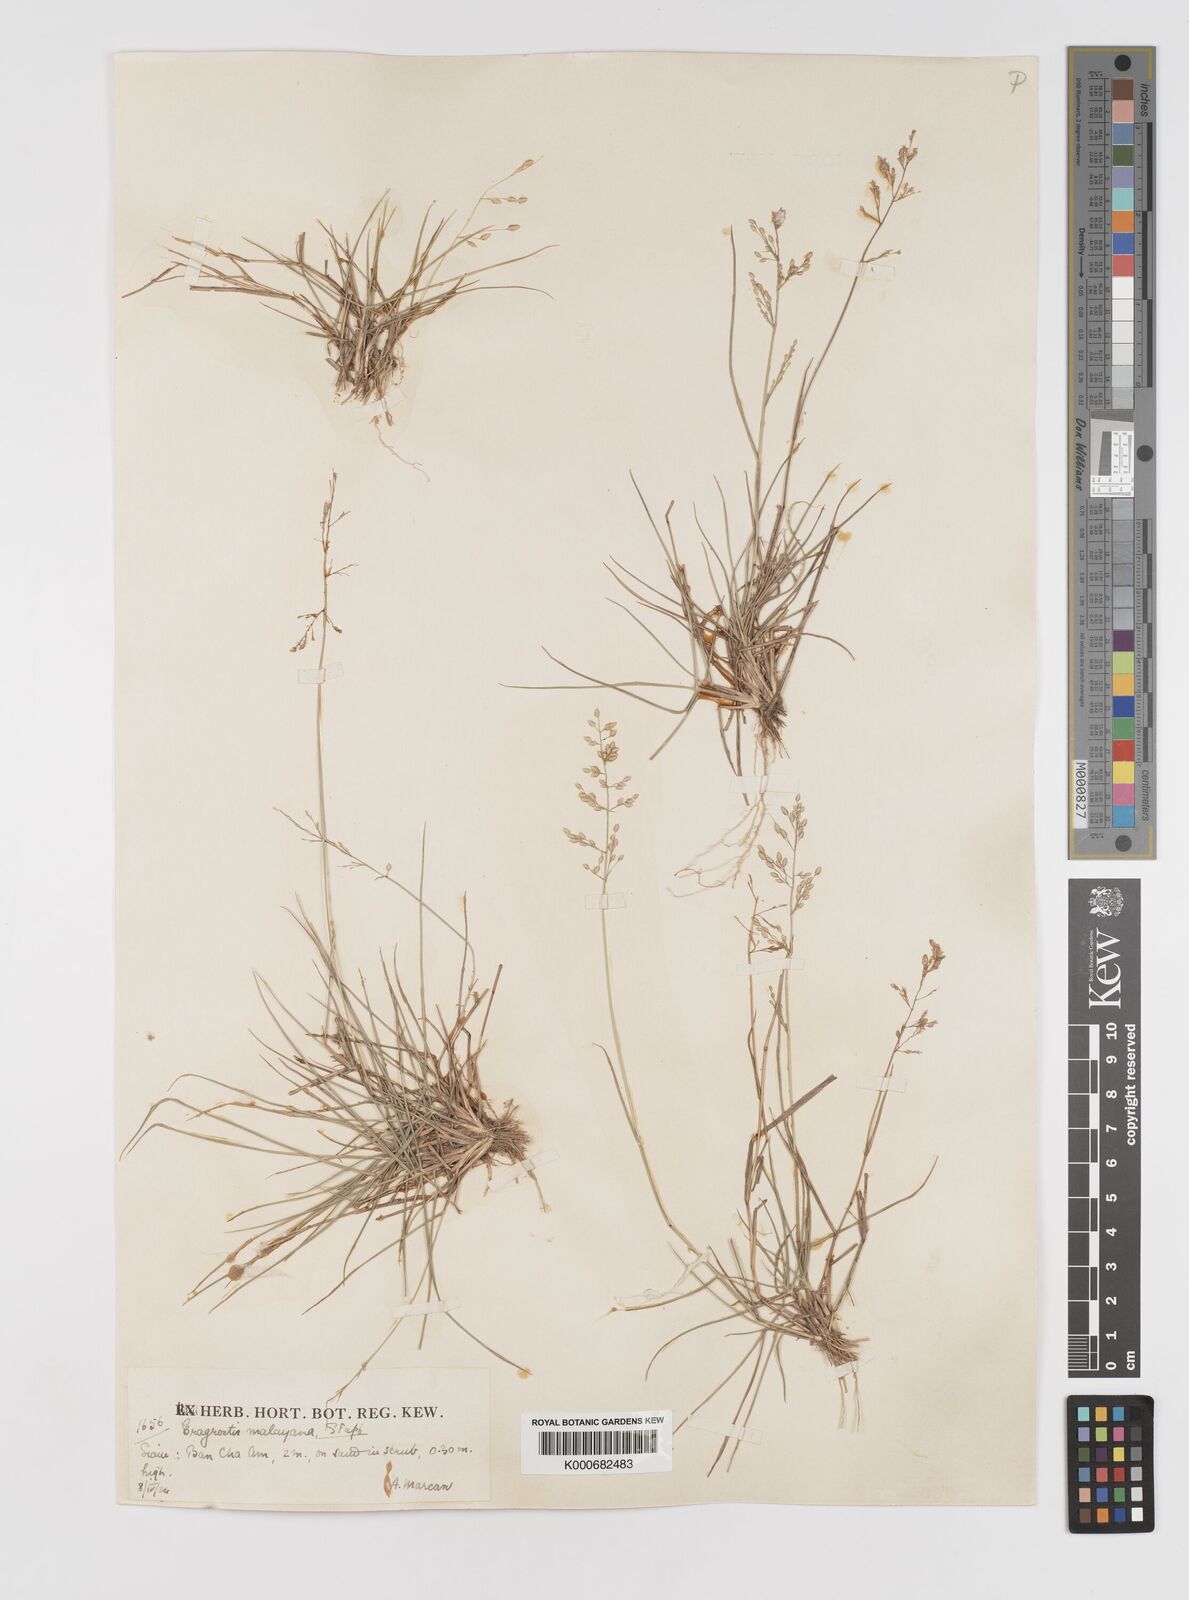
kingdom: Plantae
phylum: Tracheophyta
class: Liliopsida
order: Poales
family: Poaceae
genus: Eragrostis
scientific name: Eragrostis montana
